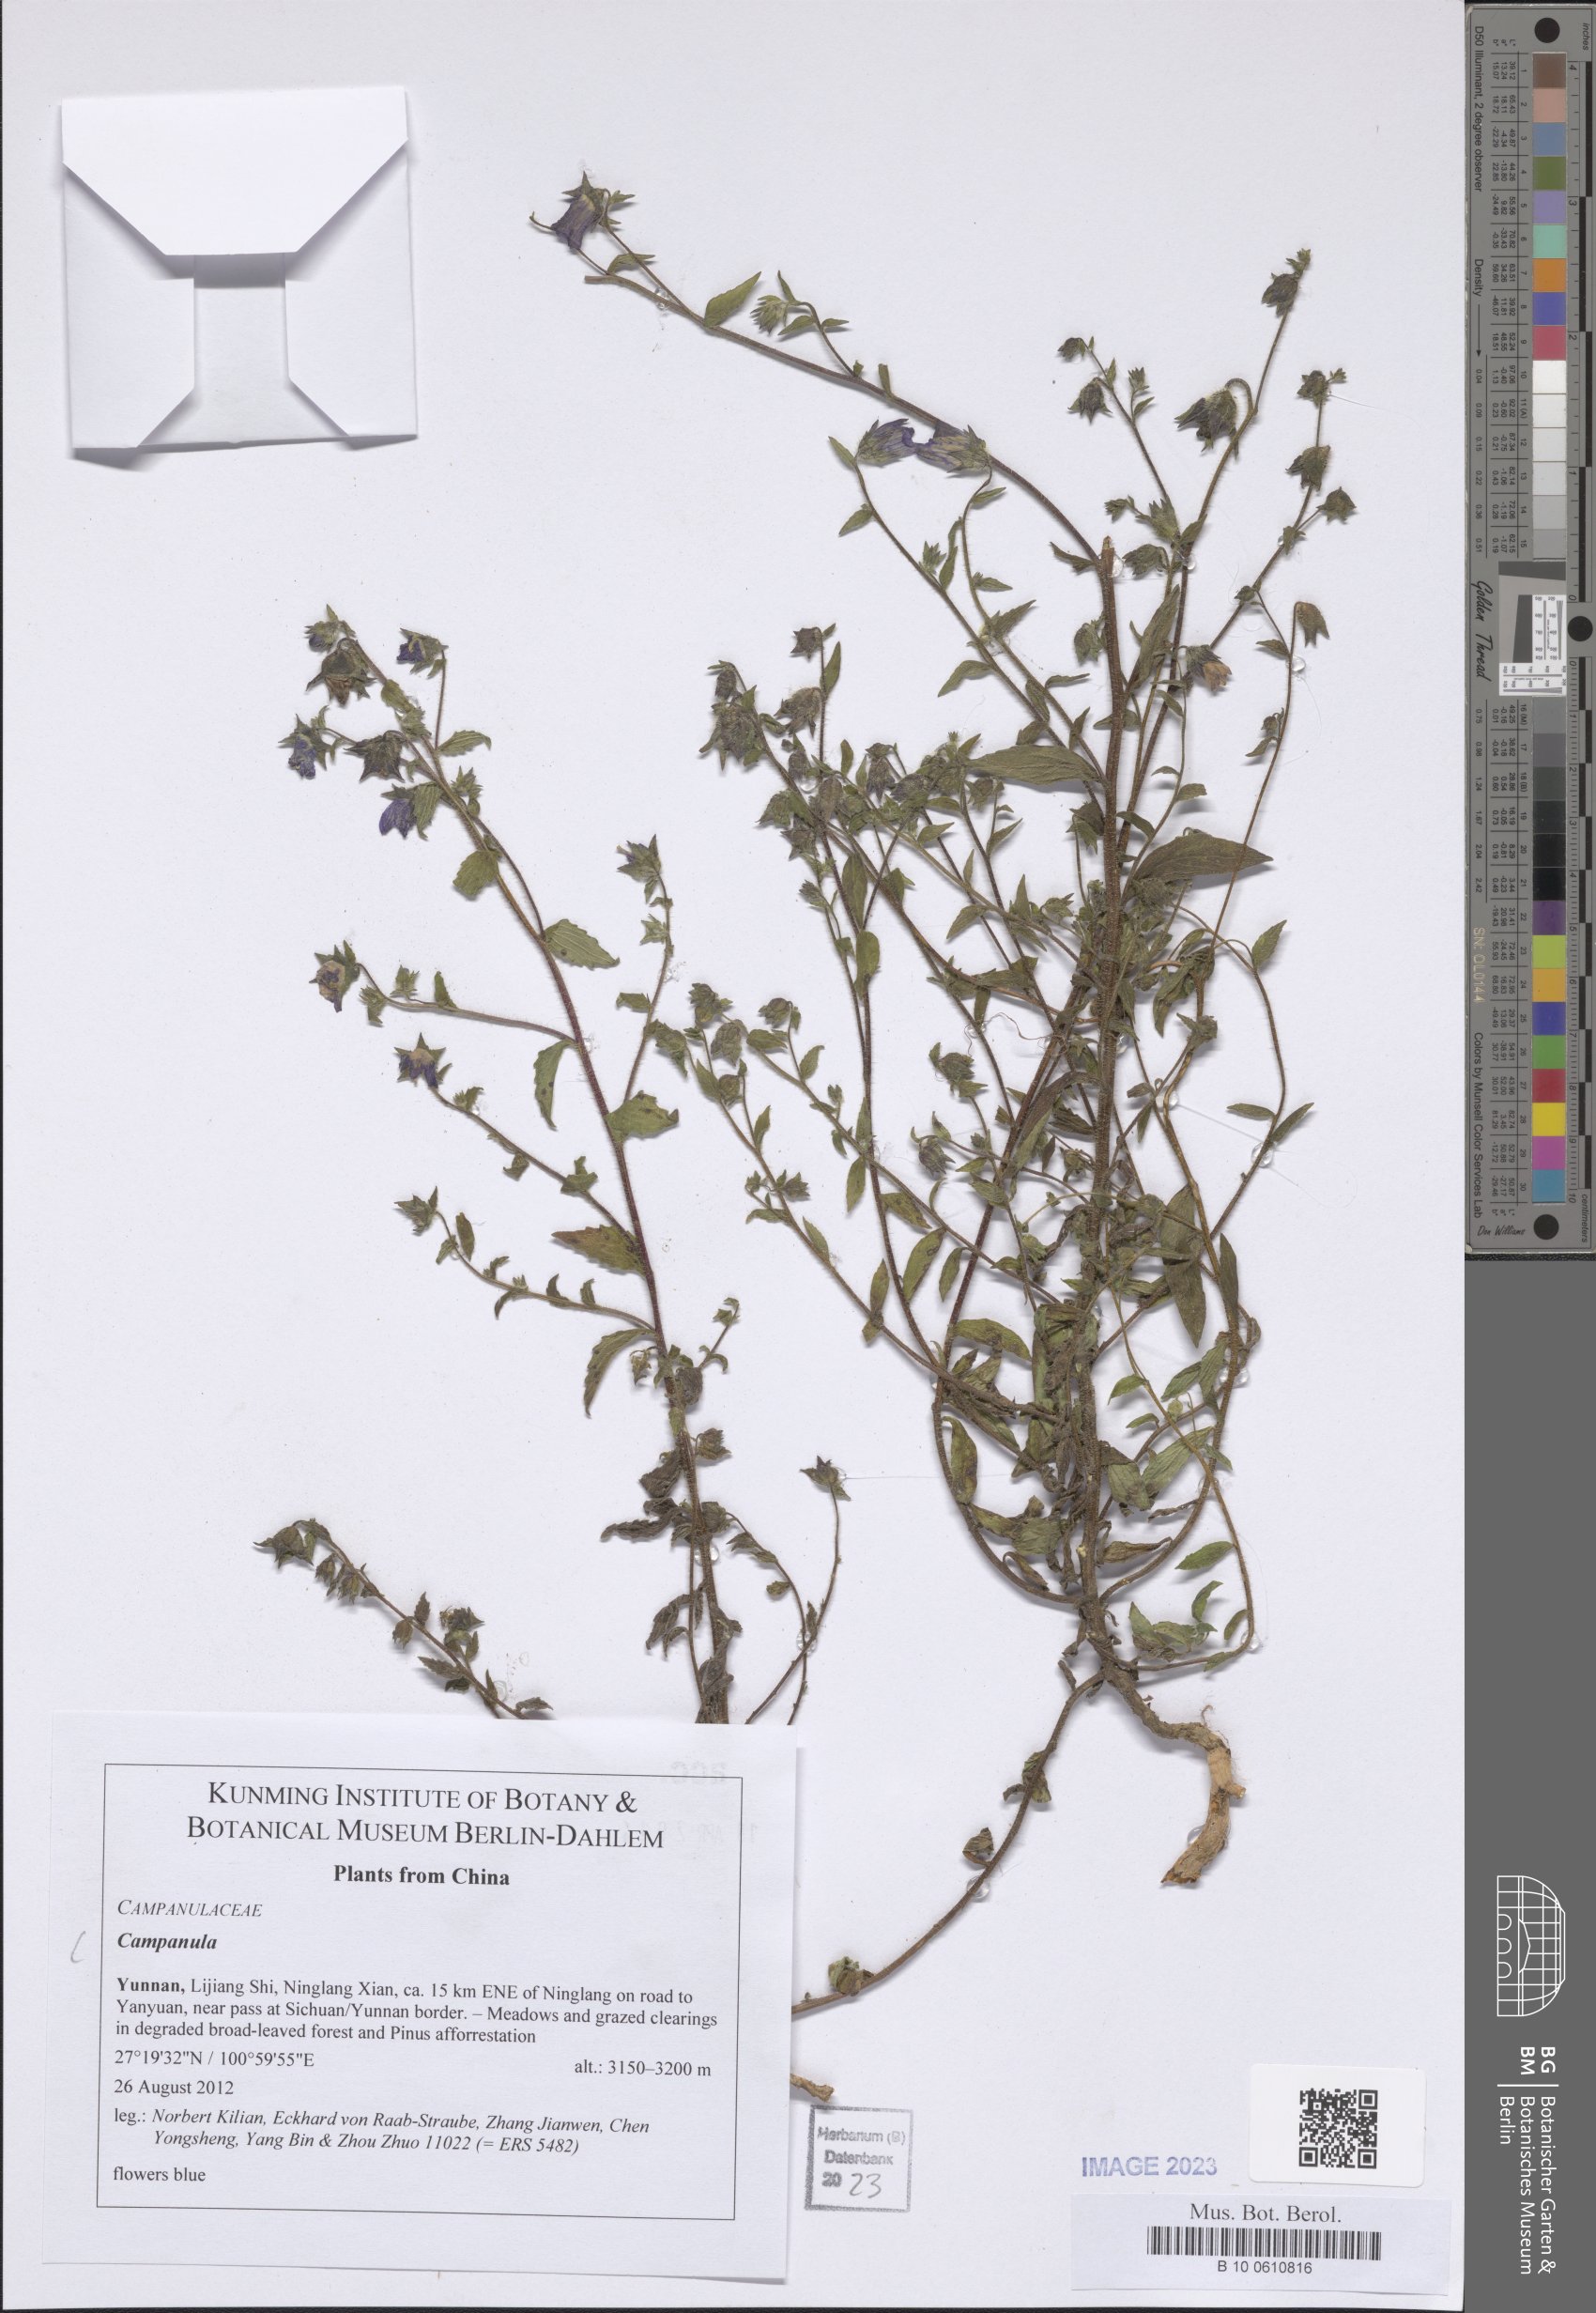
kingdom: Plantae
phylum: Tracheophyta
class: Magnoliopsida
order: Asterales
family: Campanulaceae
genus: Campanula
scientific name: Campanula
